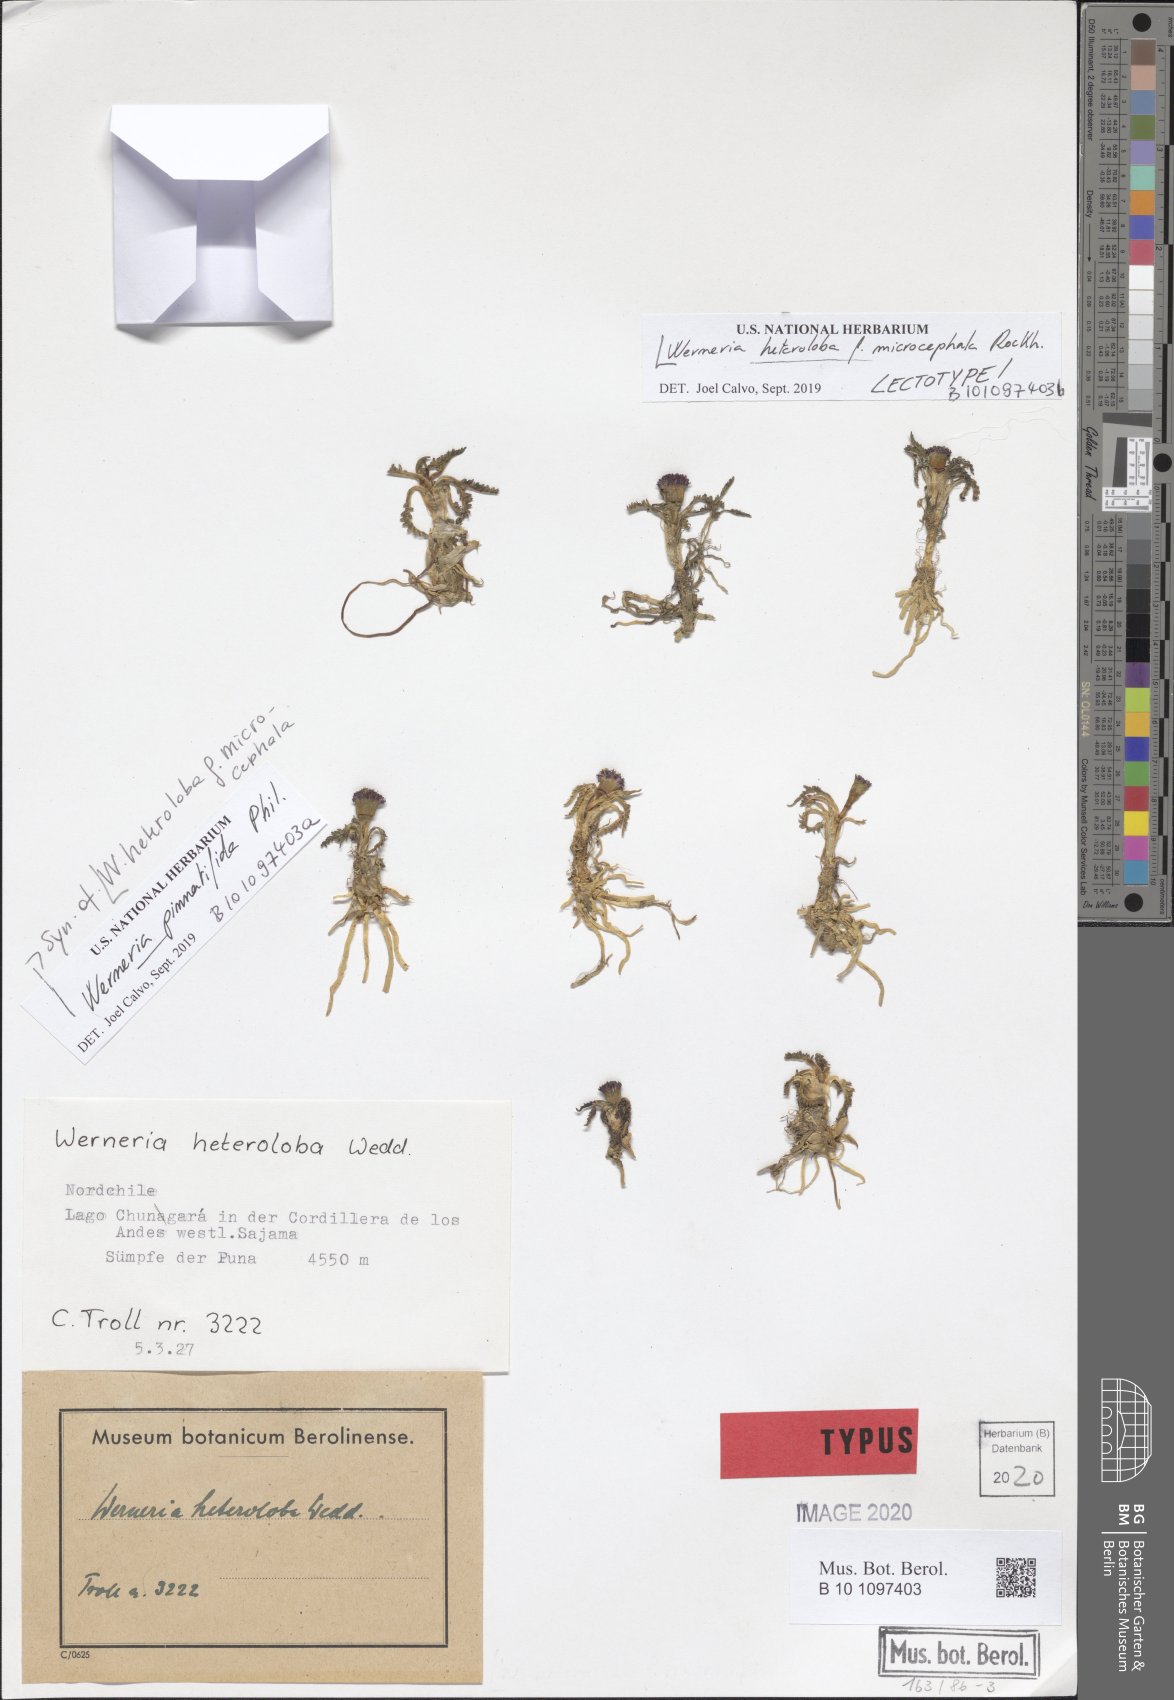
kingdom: Plantae
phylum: Tracheophyta
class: Magnoliopsida
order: Asterales
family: Asteraceae
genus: Rockhausenia
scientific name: Rockhausenia pinnatifida
